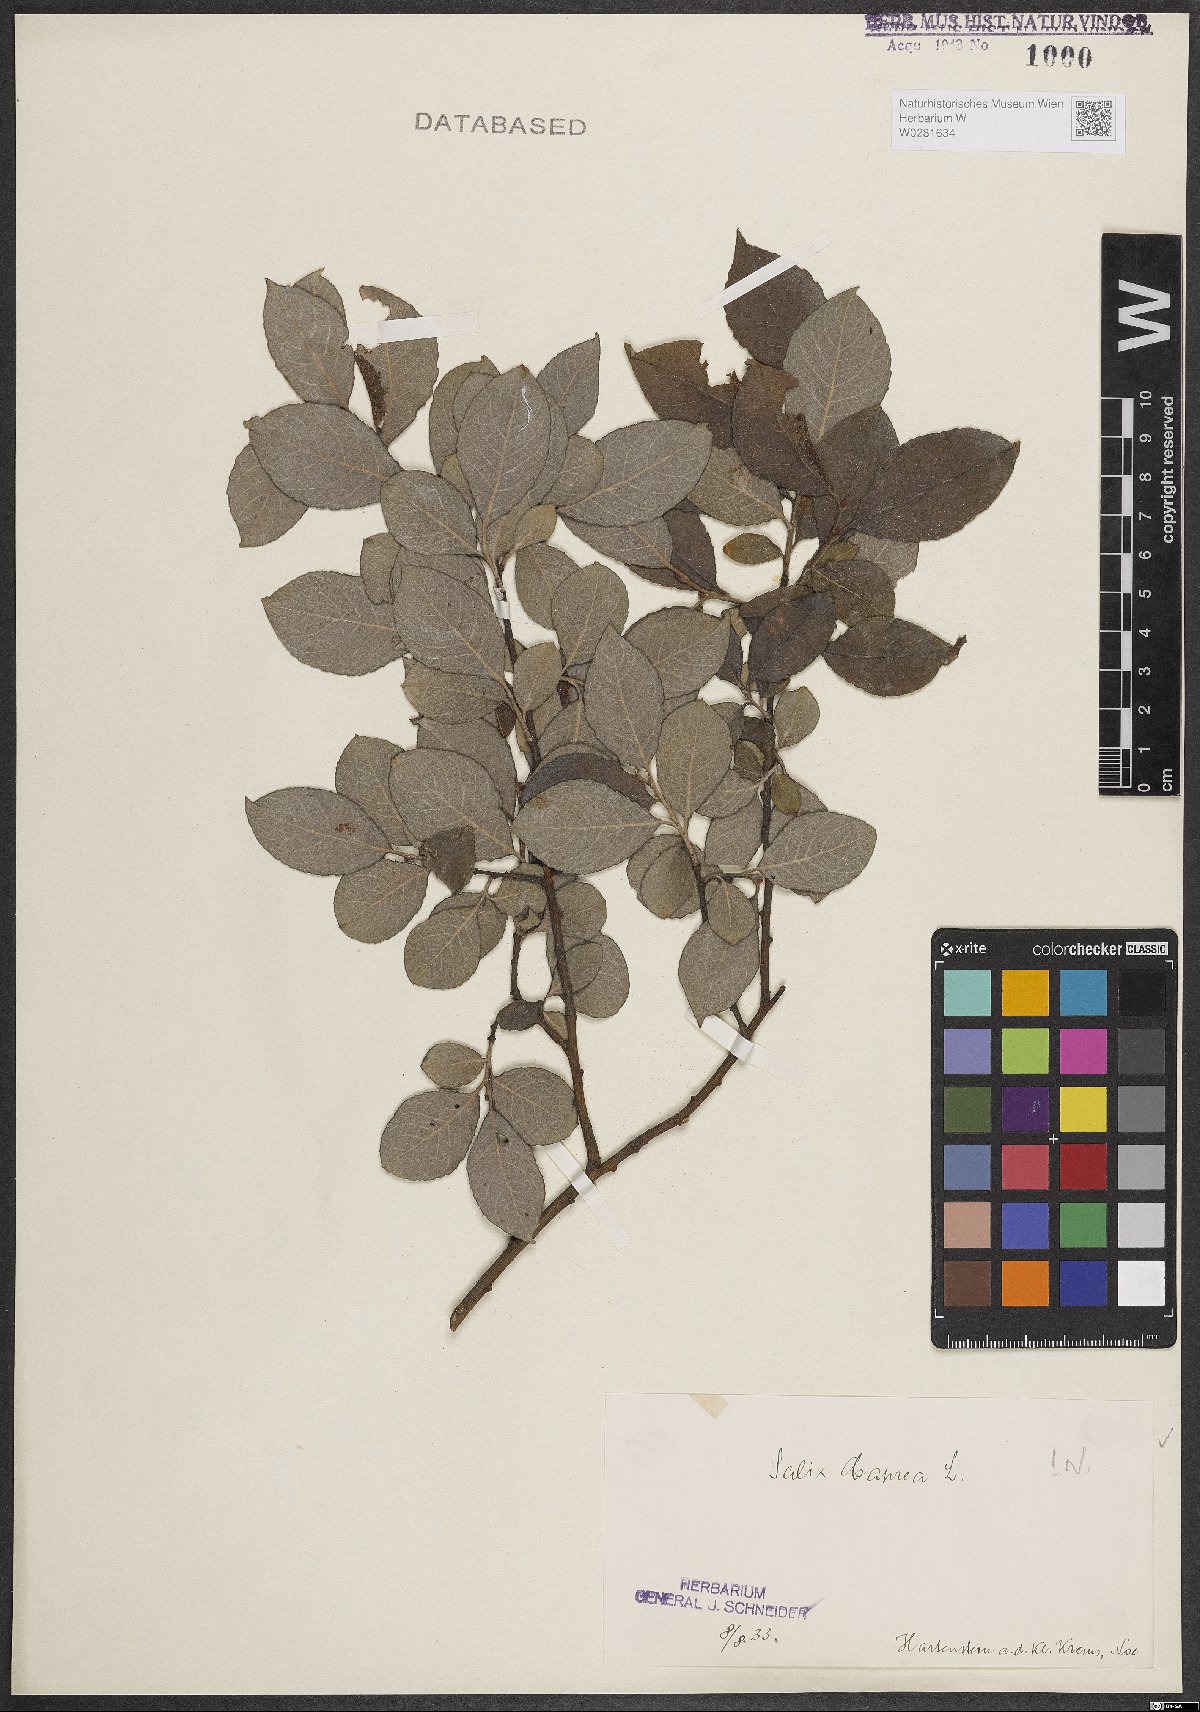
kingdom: Plantae
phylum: Tracheophyta
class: Magnoliopsida
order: Malpighiales
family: Salicaceae
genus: Salix
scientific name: Salix caprea
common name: Goat willow
